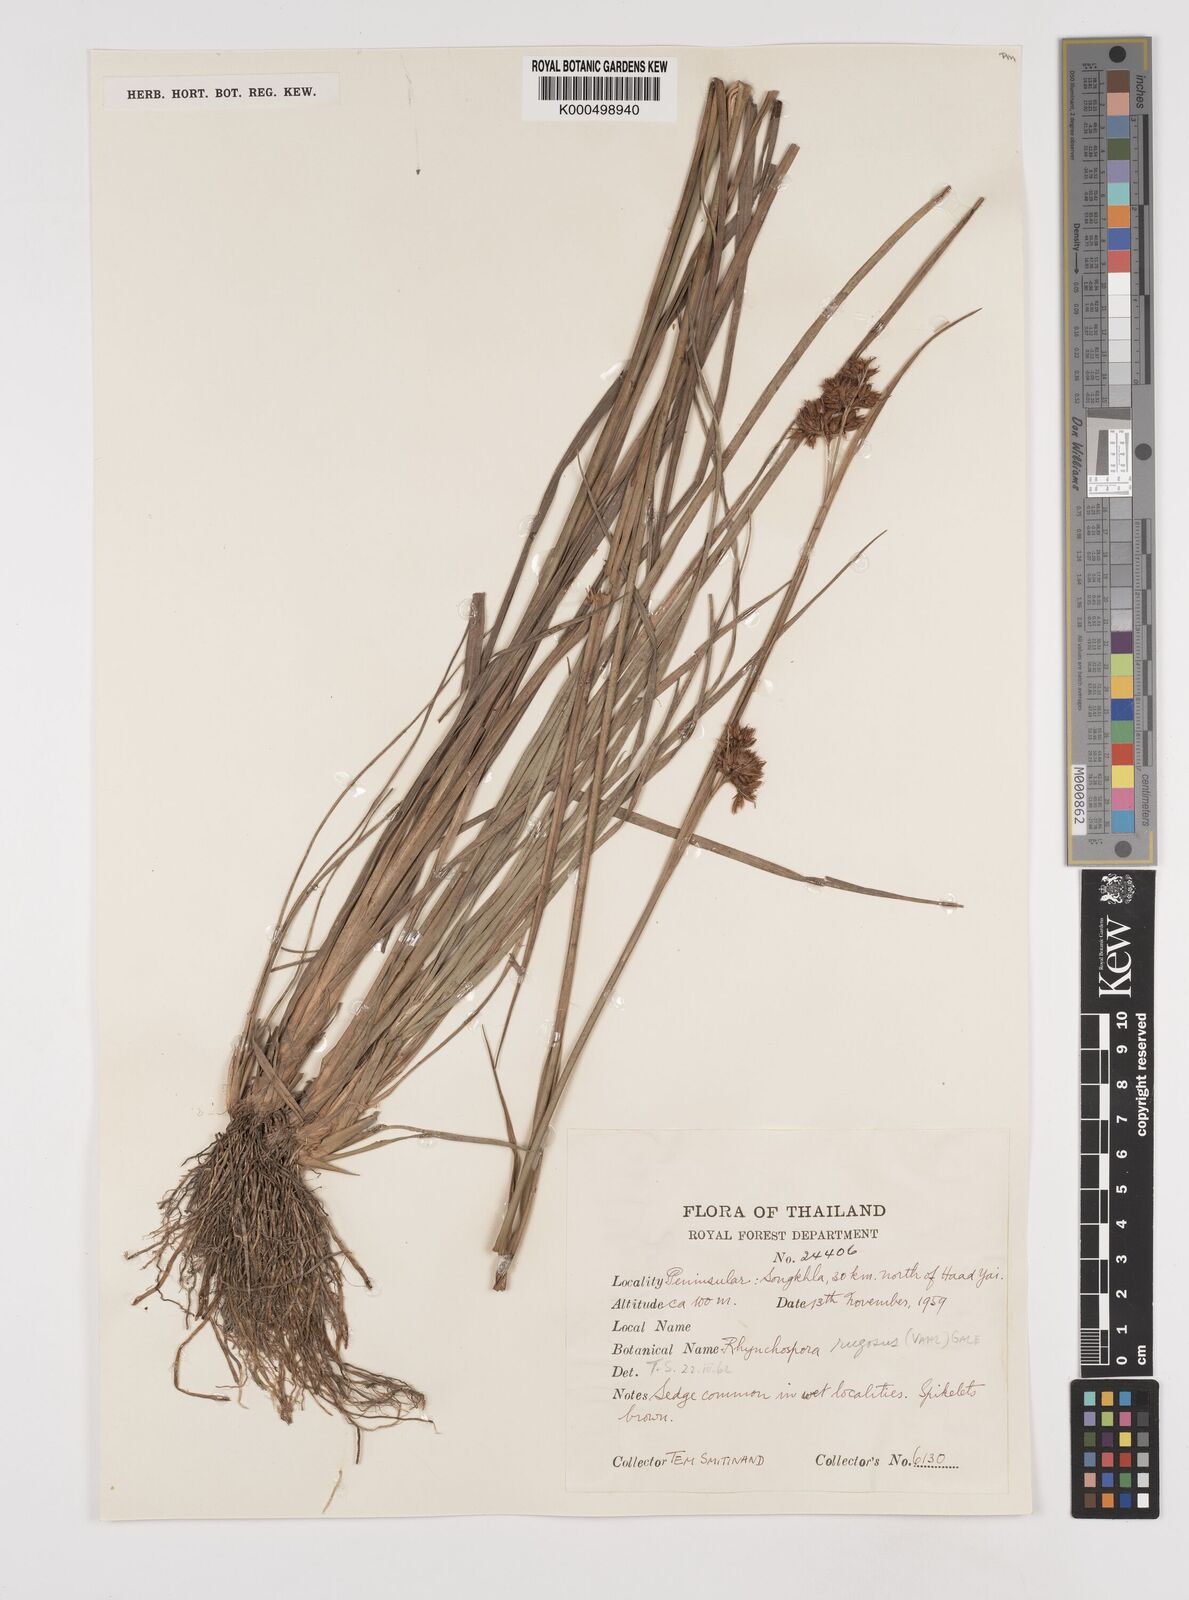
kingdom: Plantae
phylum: Tracheophyta
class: Liliopsida
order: Poales
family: Cyperaceae
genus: Rhynchospora
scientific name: Rhynchospora rugosa
